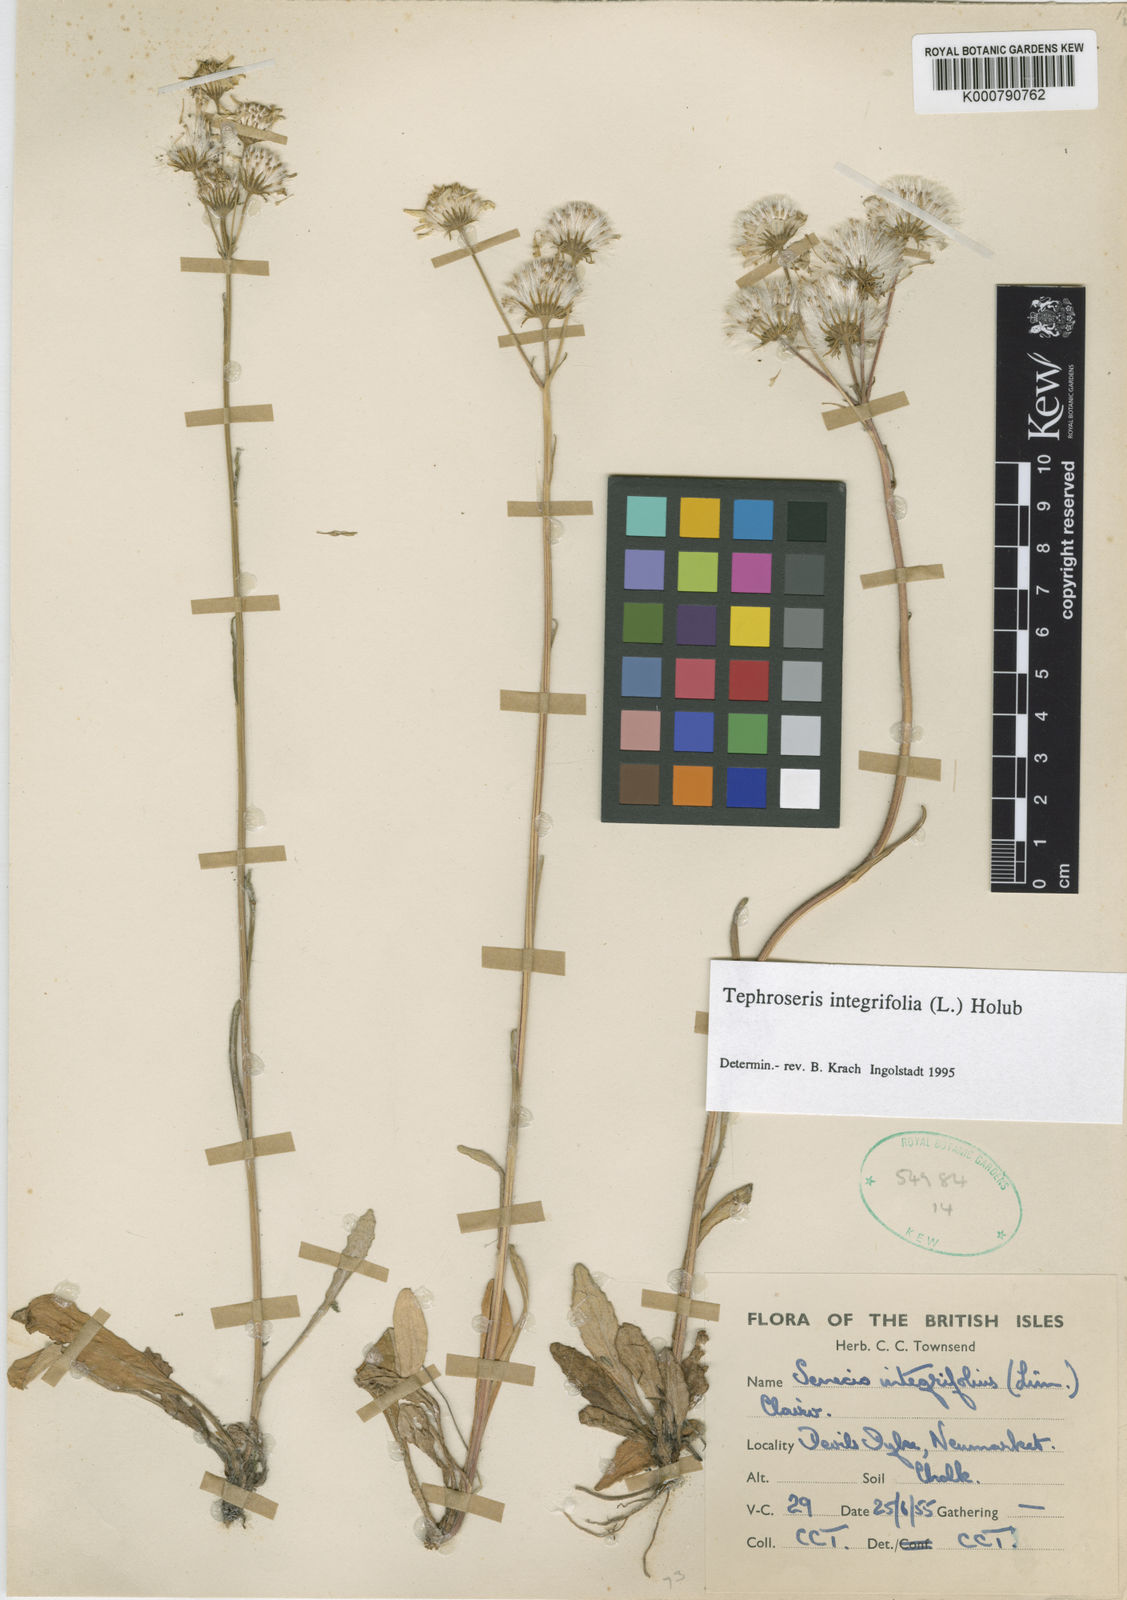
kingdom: Plantae
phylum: Tracheophyta
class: Magnoliopsida
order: Asterales
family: Asteraceae
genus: Tephroseris
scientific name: Tephroseris integrifolia
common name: Field fleawort
